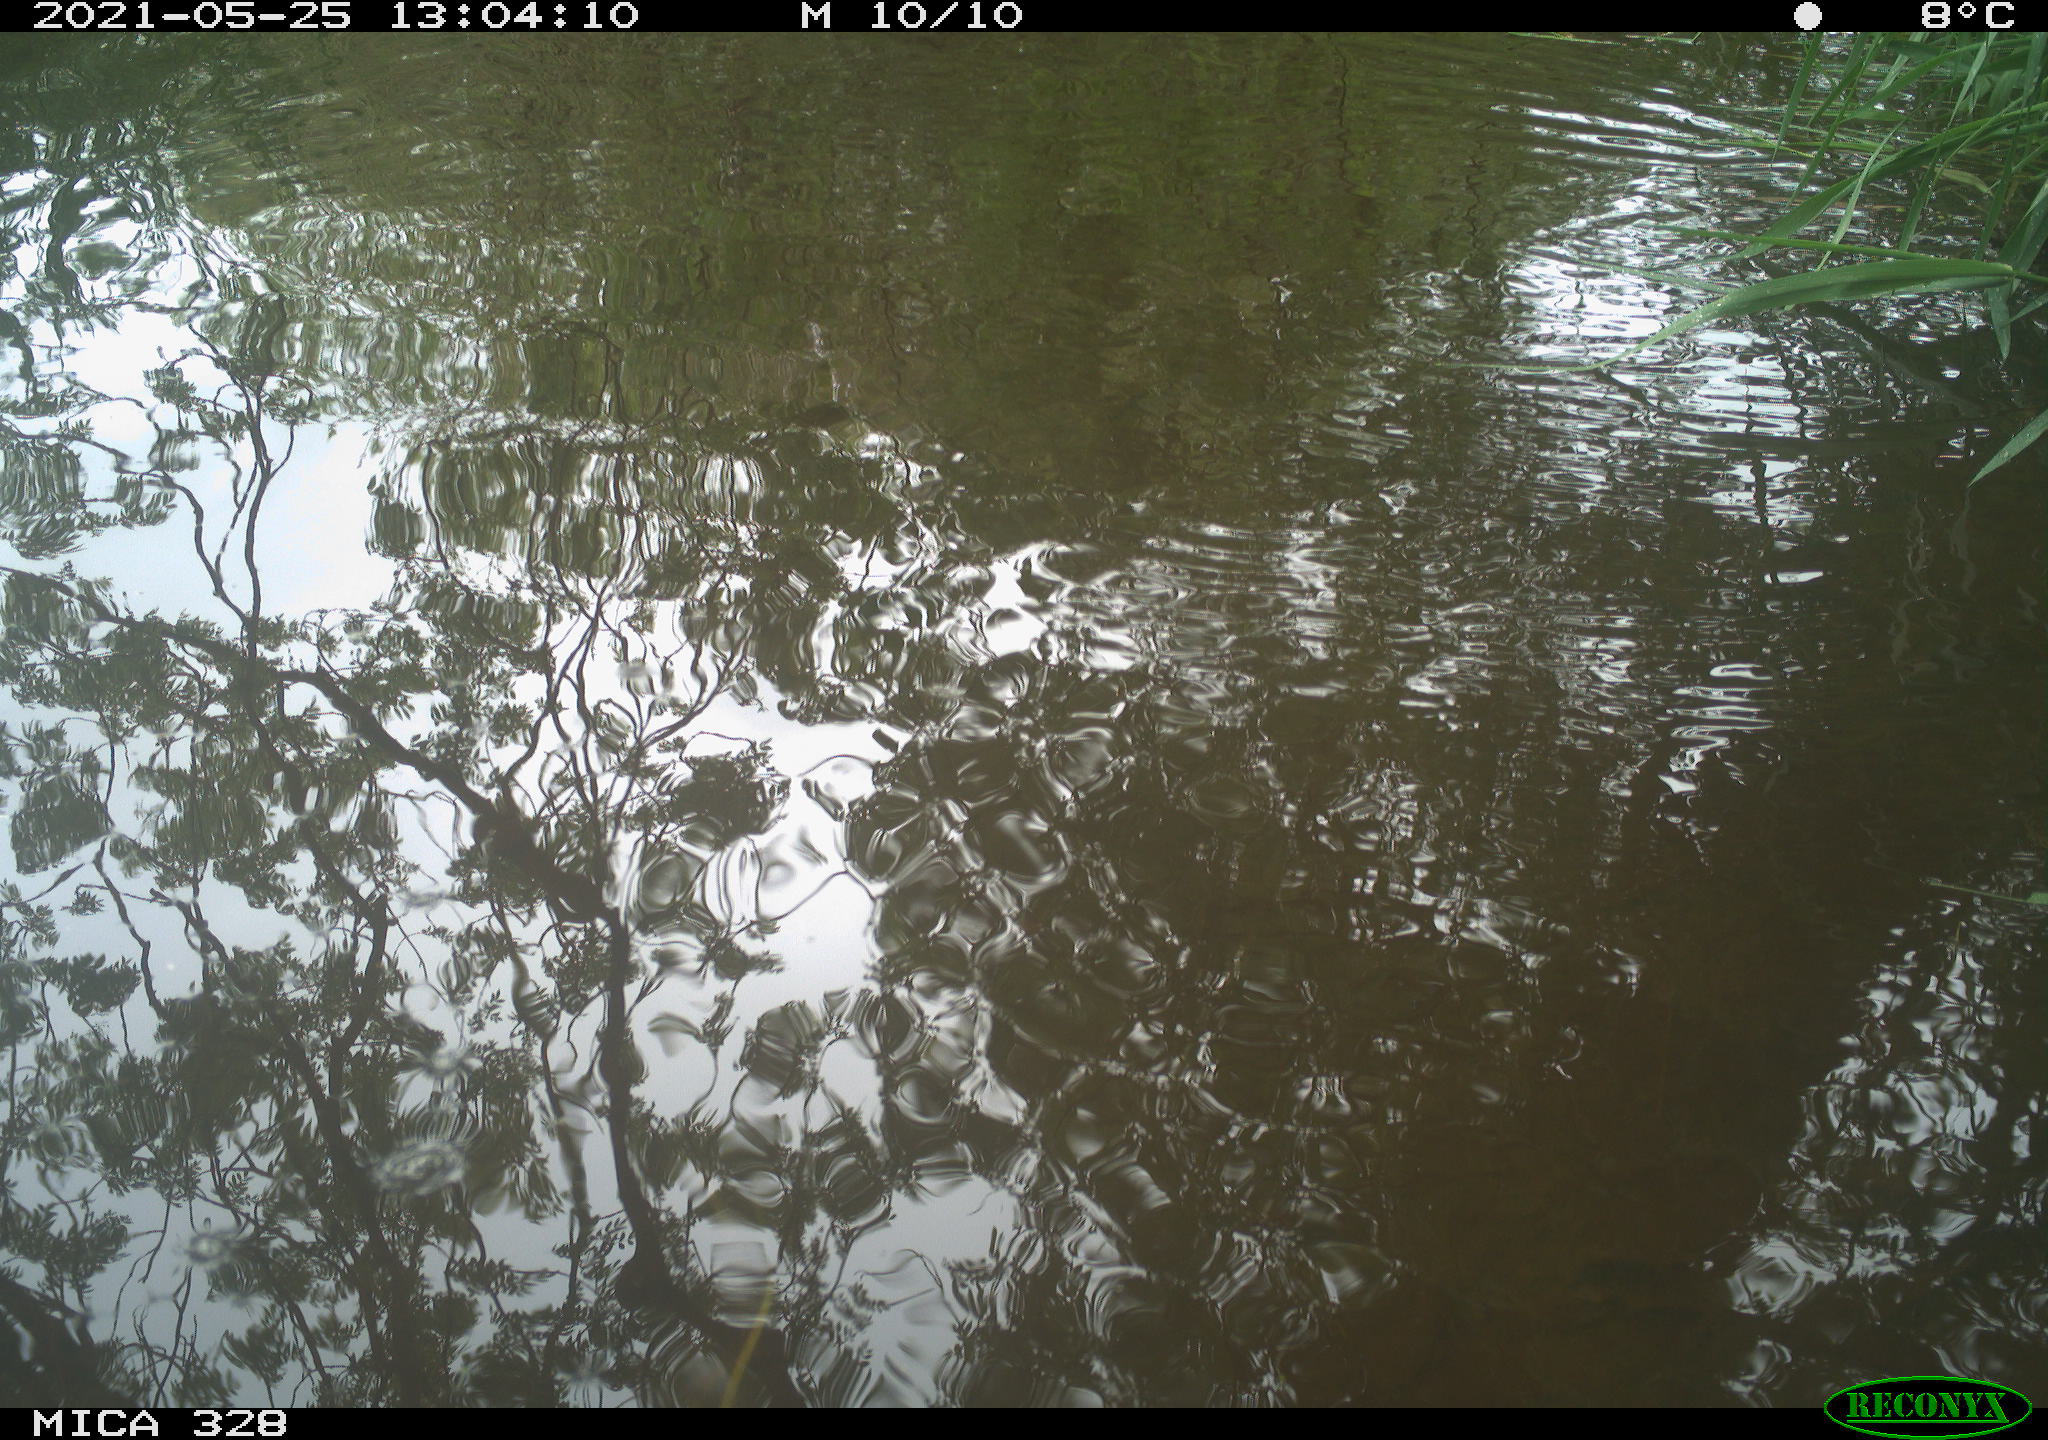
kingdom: Animalia
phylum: Chordata
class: Aves
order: Anseriformes
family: Anatidae
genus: Aix
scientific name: Aix galericulata
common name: Mandarin duck
